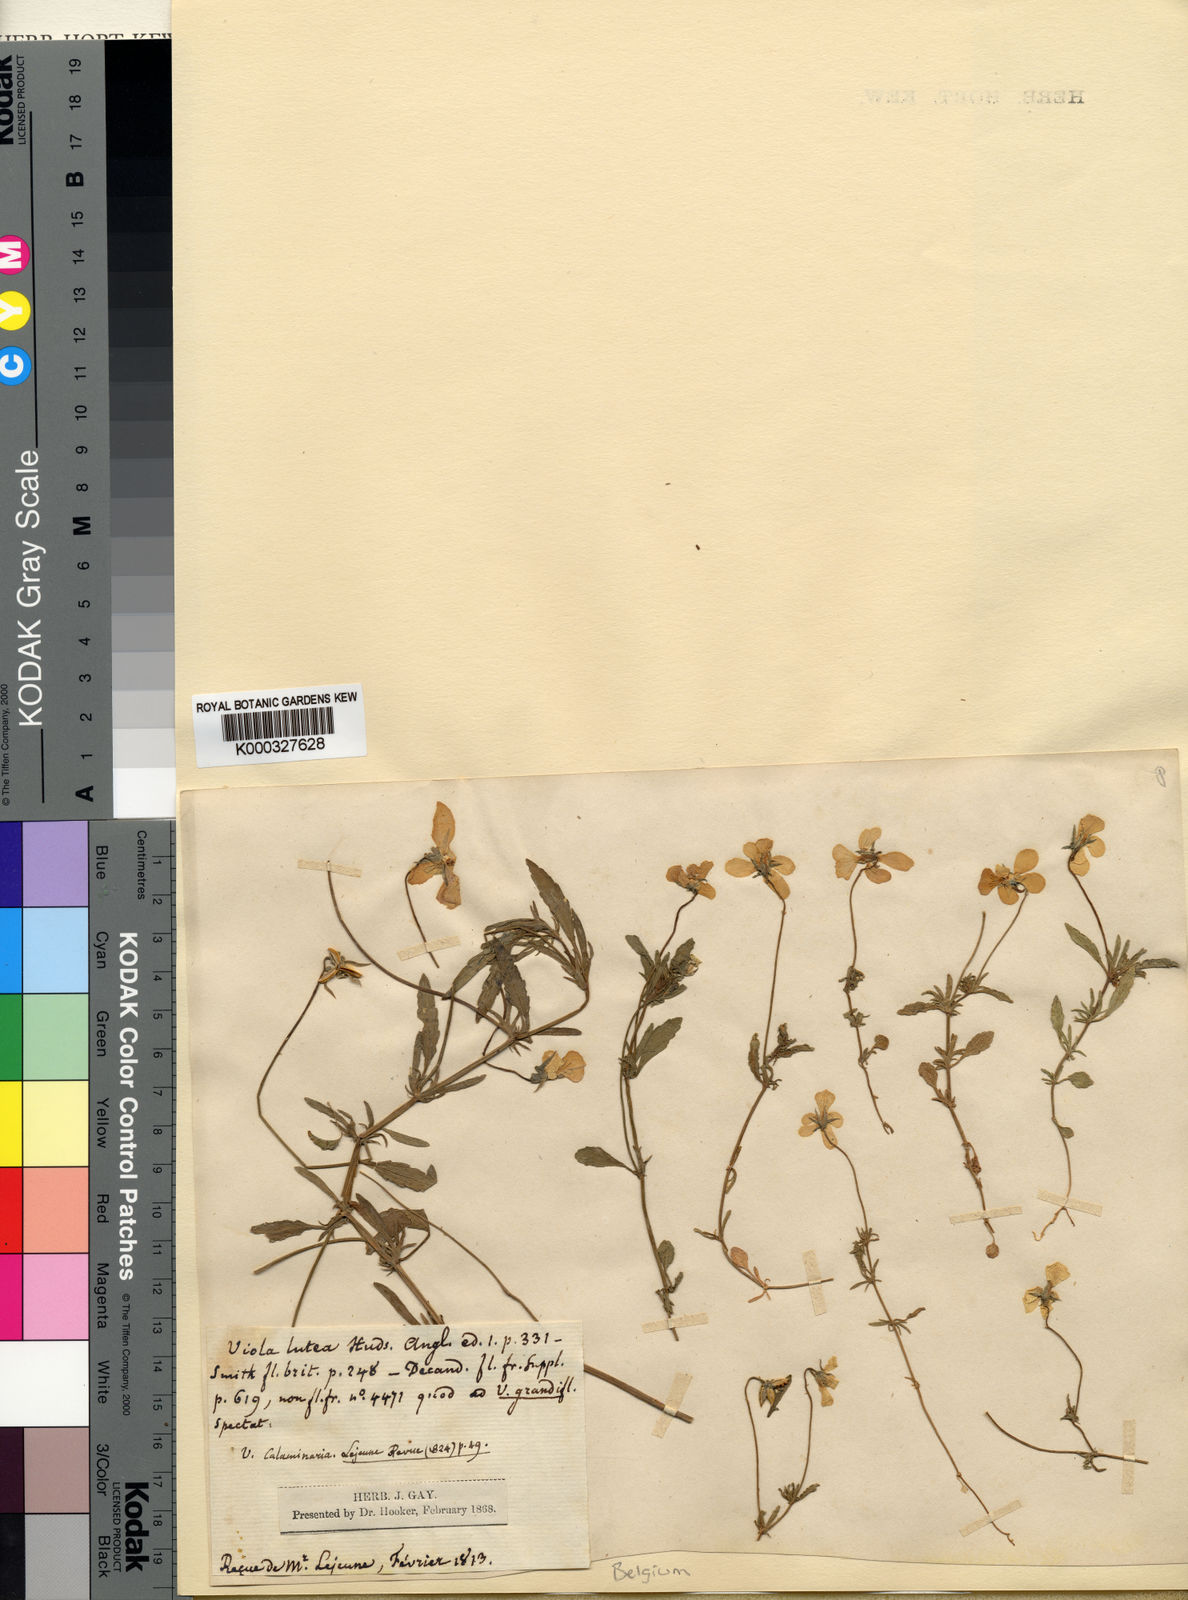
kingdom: Plantae
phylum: Tracheophyta
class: Magnoliopsida
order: Malpighiales
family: Violaceae
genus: Viola
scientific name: Viola lutea
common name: Mountain pansy
